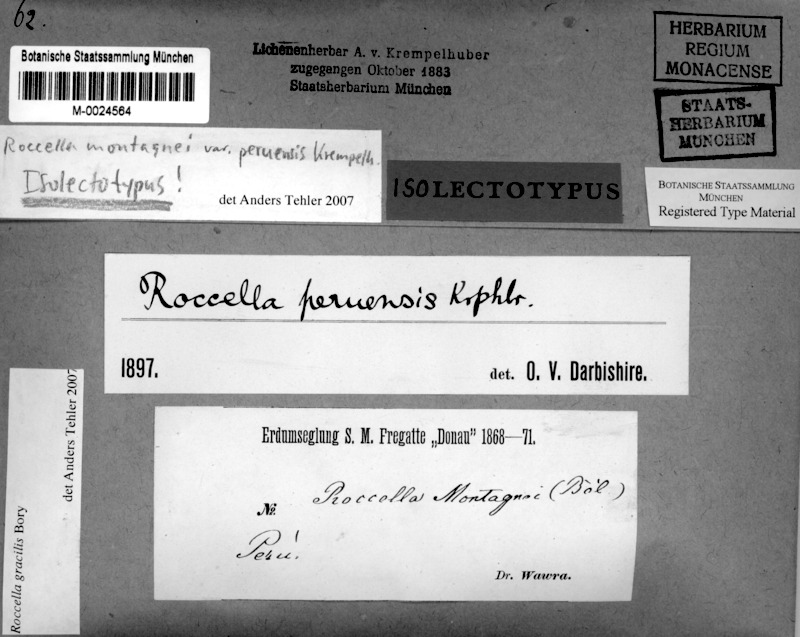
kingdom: Fungi
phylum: Ascomycota
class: Arthoniomycetes
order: Arthoniales
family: Roccellaceae
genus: Roccella
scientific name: Roccella gracilis
